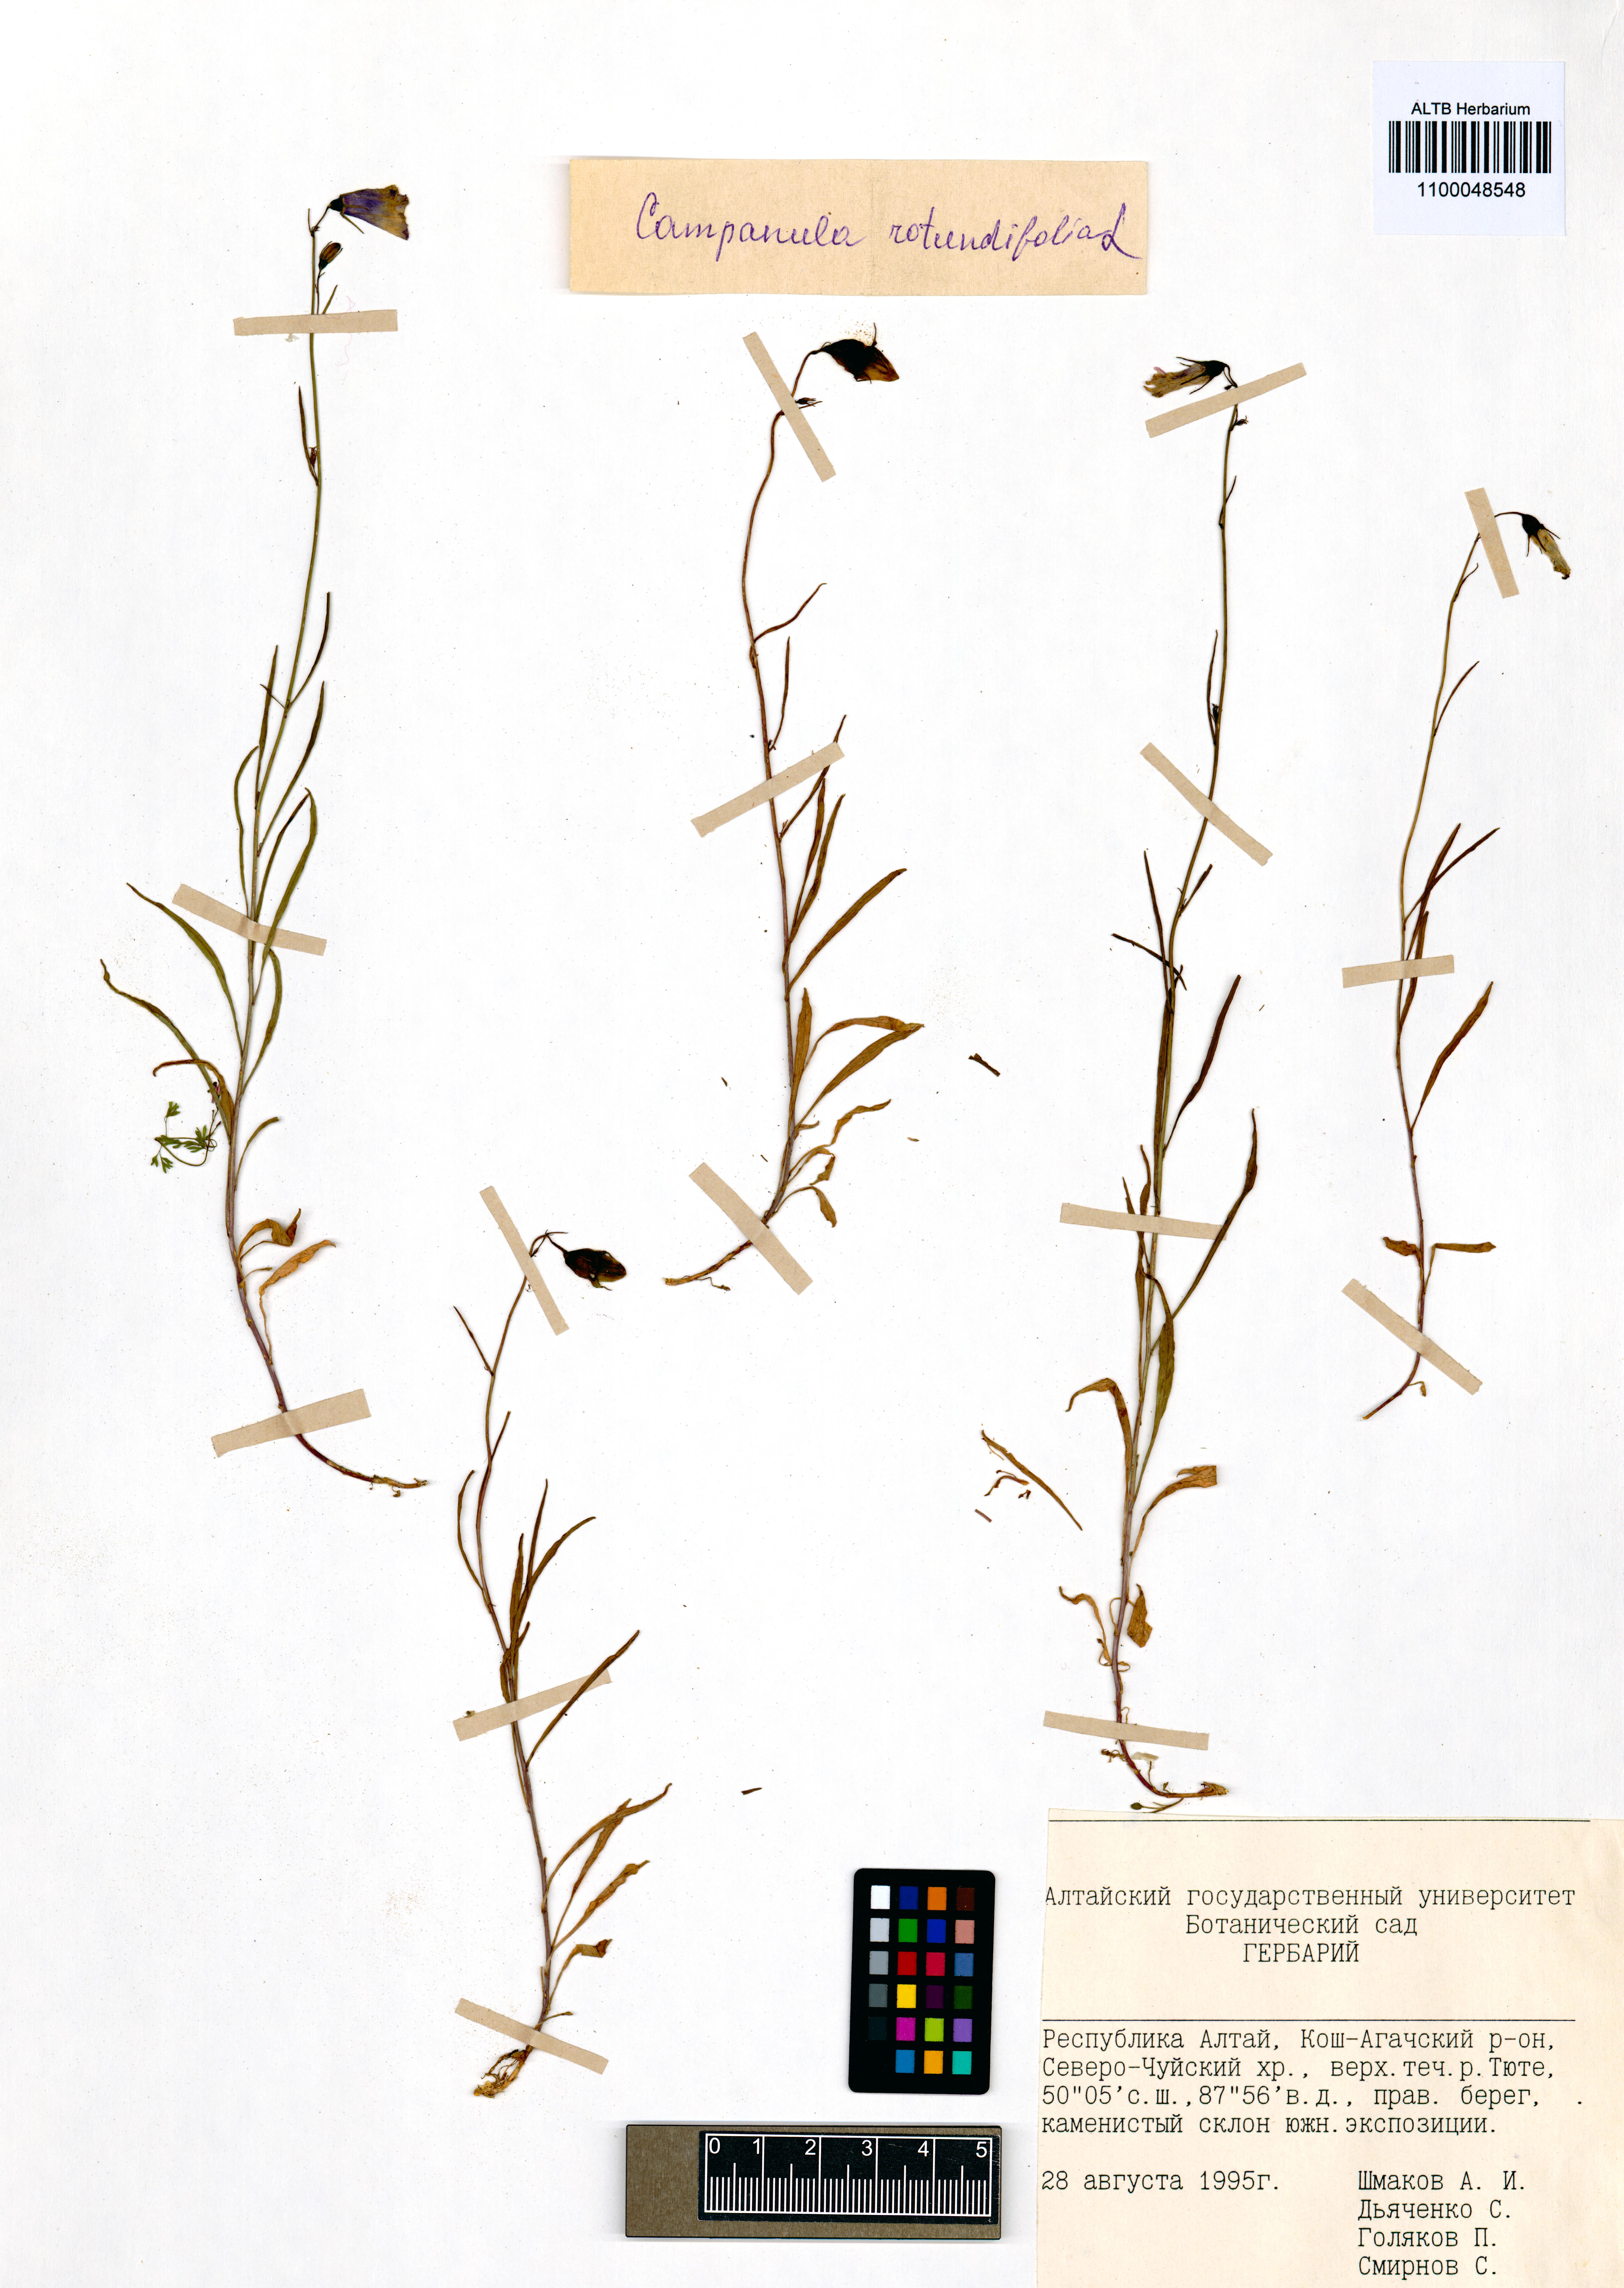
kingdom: Plantae
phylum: Tracheophyta
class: Magnoliopsida
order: Asterales
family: Campanulaceae
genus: Campanula
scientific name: Campanula rotundifolia
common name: Harebell
